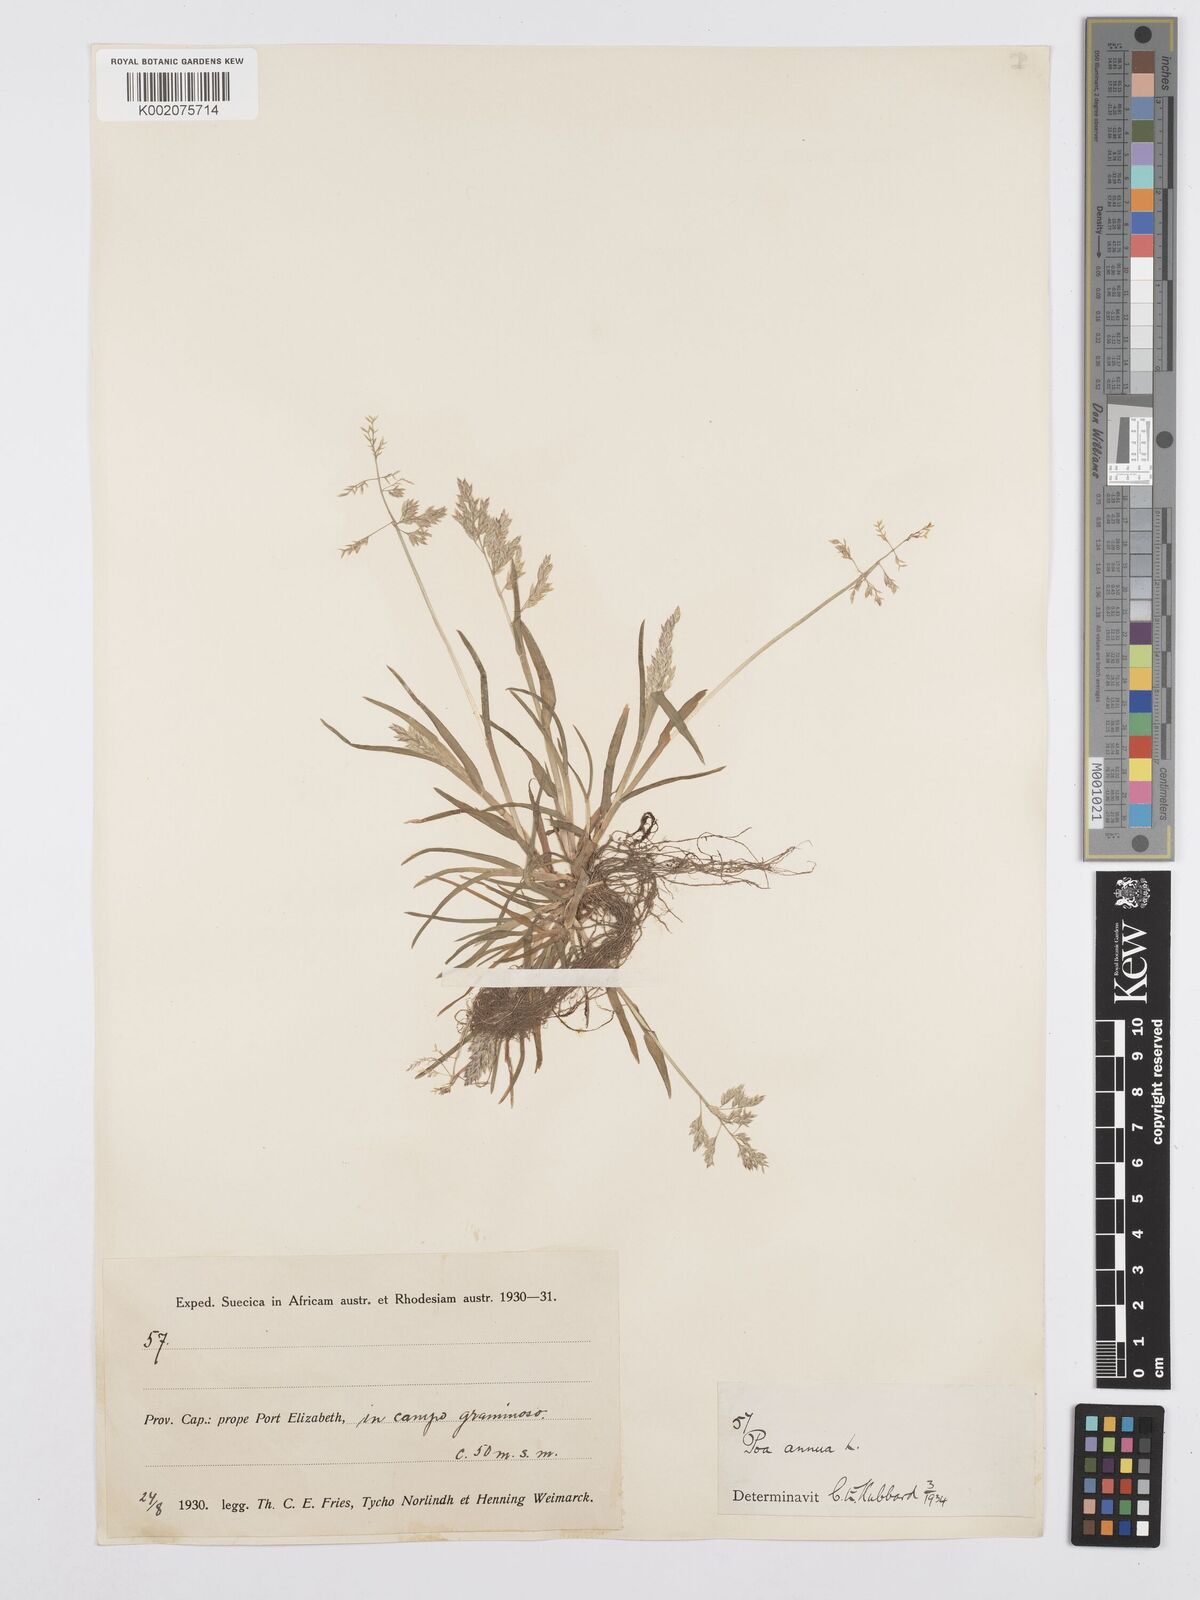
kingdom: Plantae
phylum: Tracheophyta
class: Liliopsida
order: Poales
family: Poaceae
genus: Poa
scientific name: Poa annua
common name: Annual bluegrass
